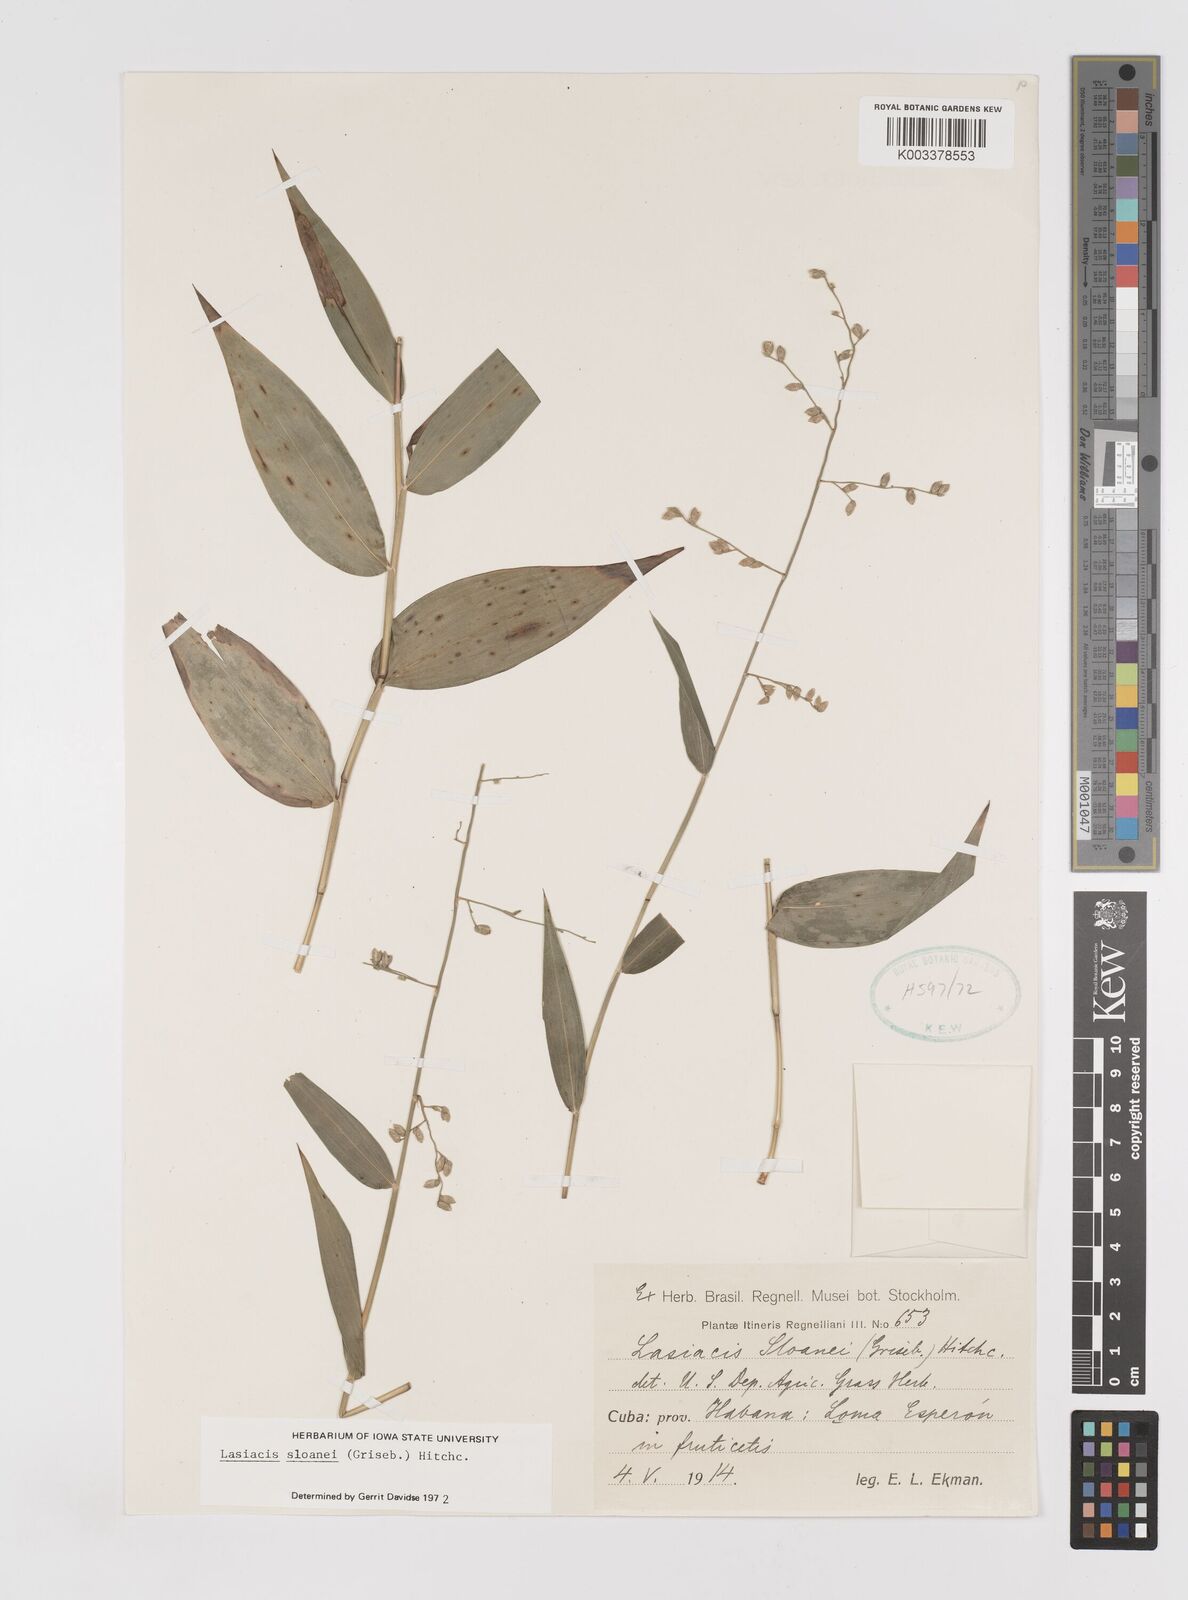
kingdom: Plantae
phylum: Tracheophyta
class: Liliopsida
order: Poales
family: Poaceae
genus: Lasiacis
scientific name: Lasiacis sloanei
